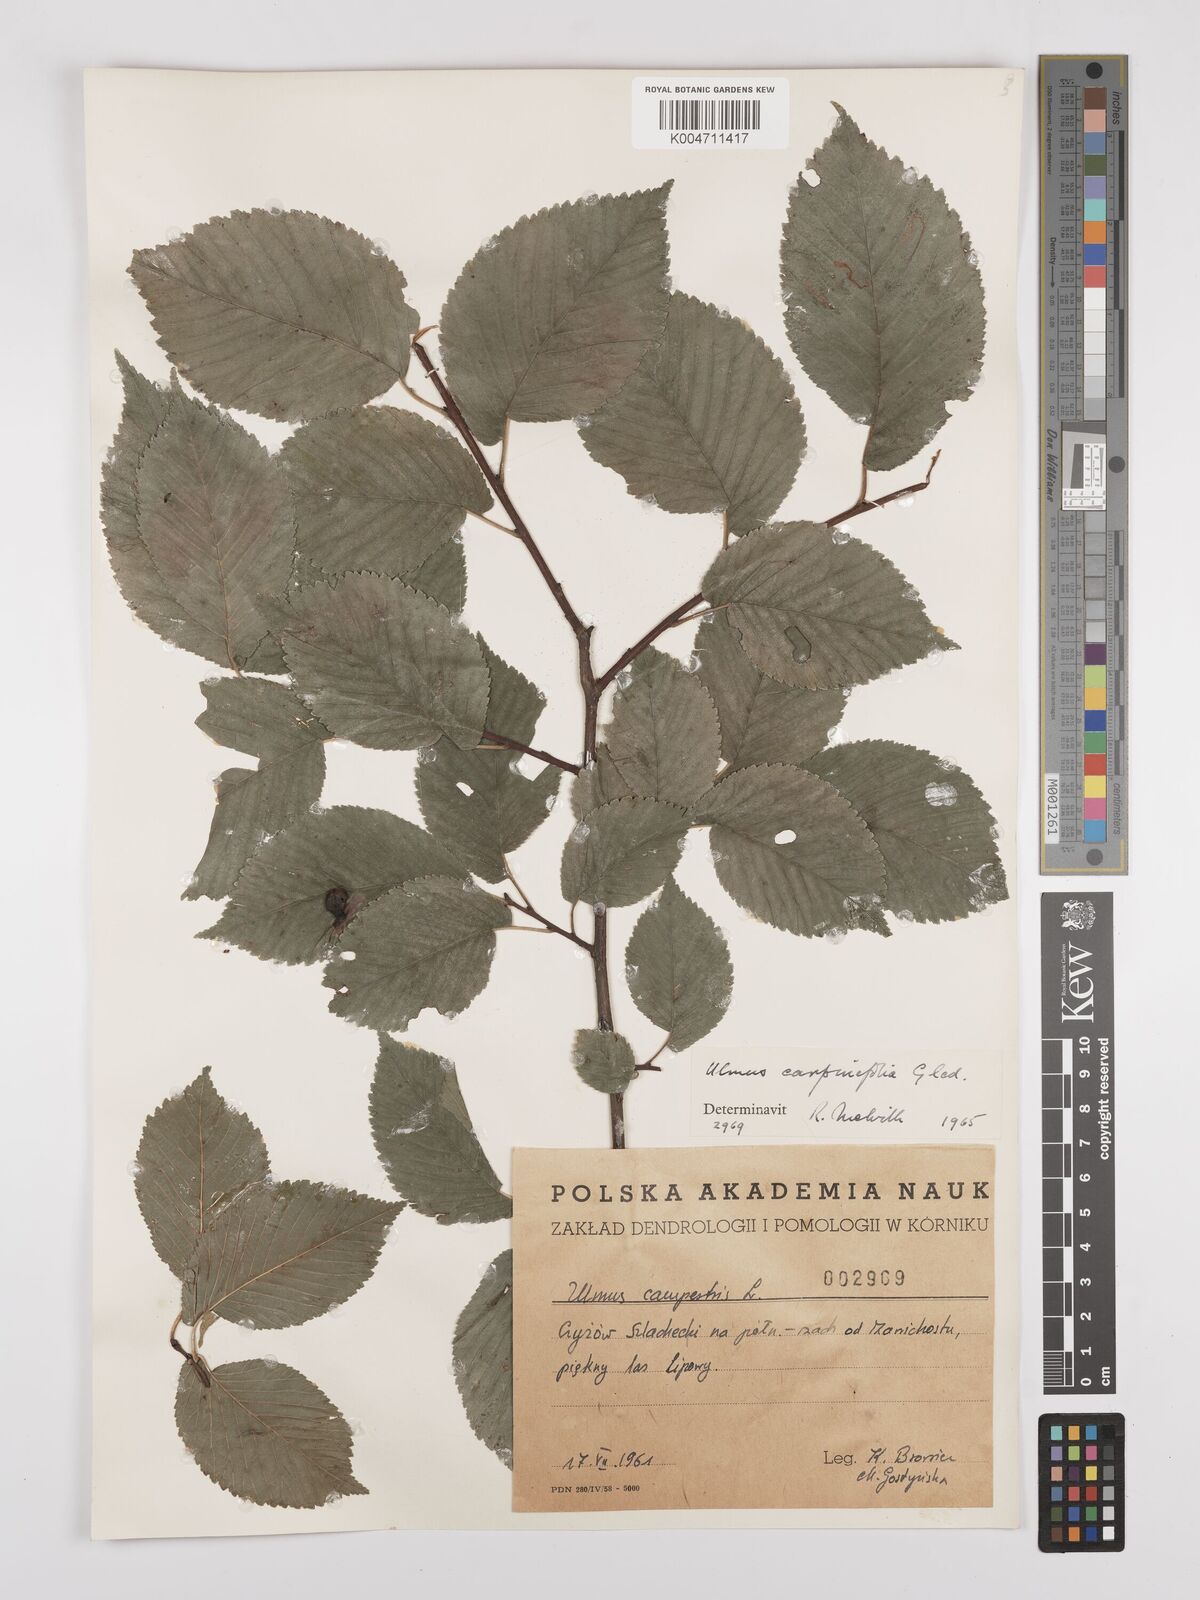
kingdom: Plantae
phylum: Tracheophyta
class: Magnoliopsida
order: Rosales
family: Ulmaceae
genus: Ulmus
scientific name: Ulmus minor
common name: Small-leaved elm
